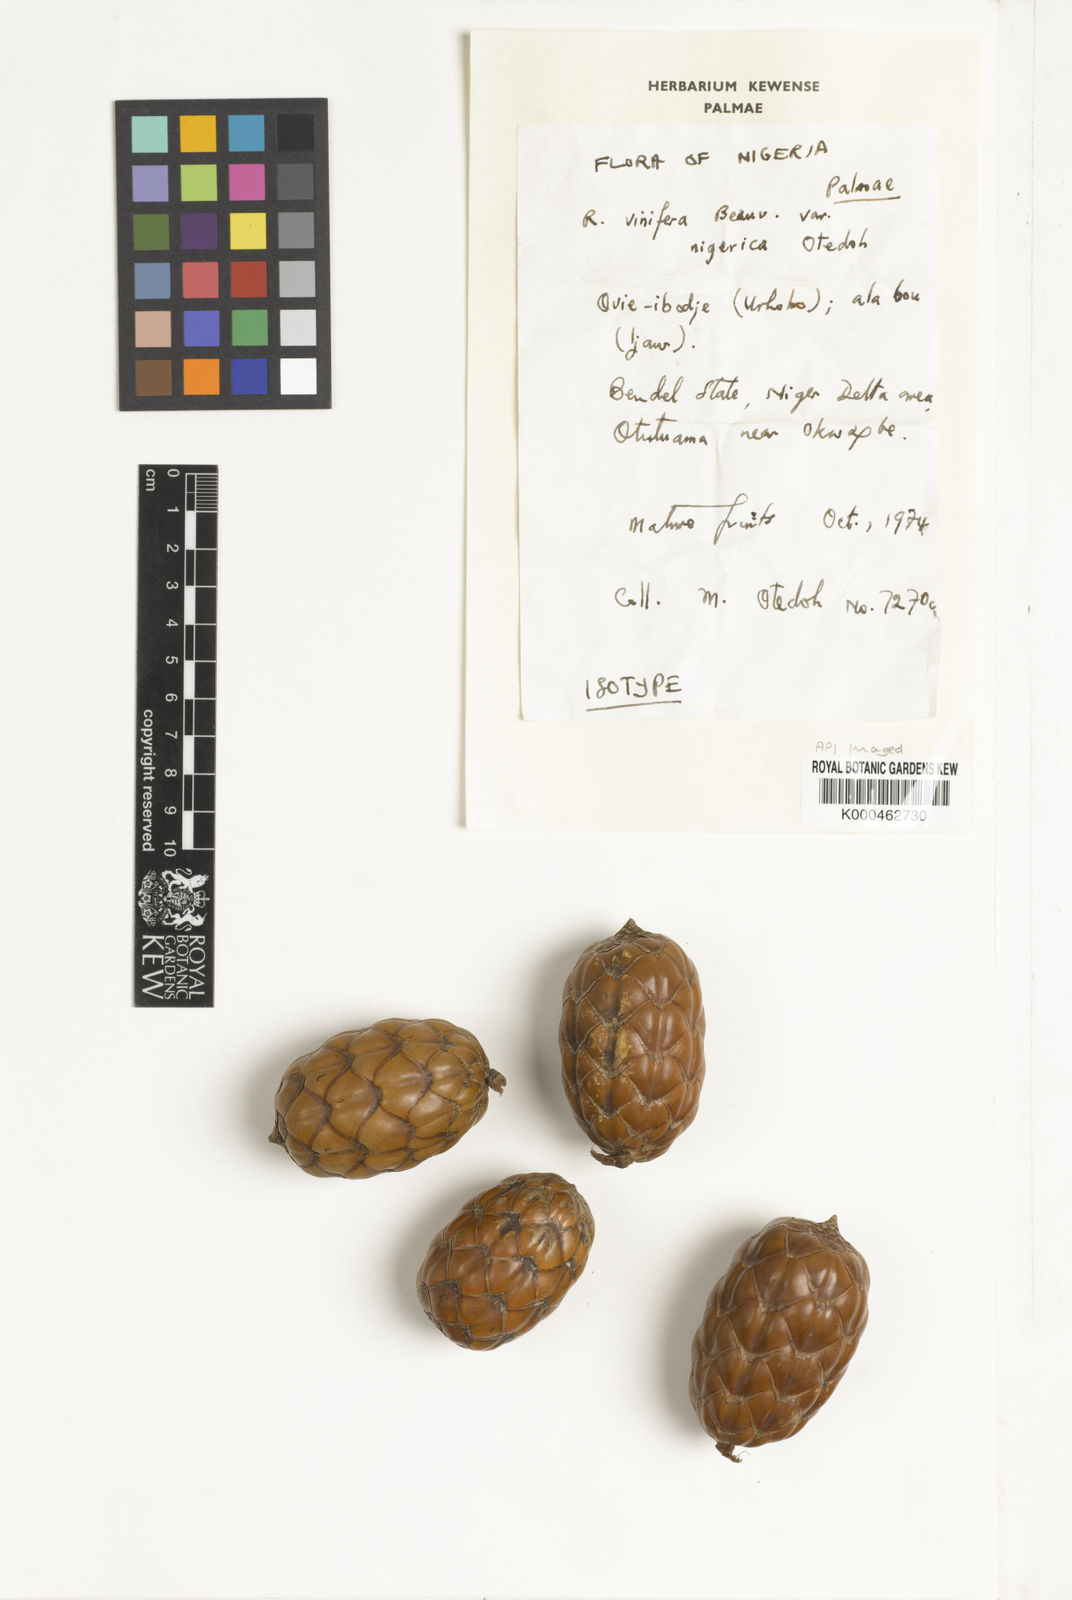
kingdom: Plantae
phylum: Tracheophyta
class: Liliopsida
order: Arecales
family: Arecaceae
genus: Raphia
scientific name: Raphia vinifera
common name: Raphia palm
